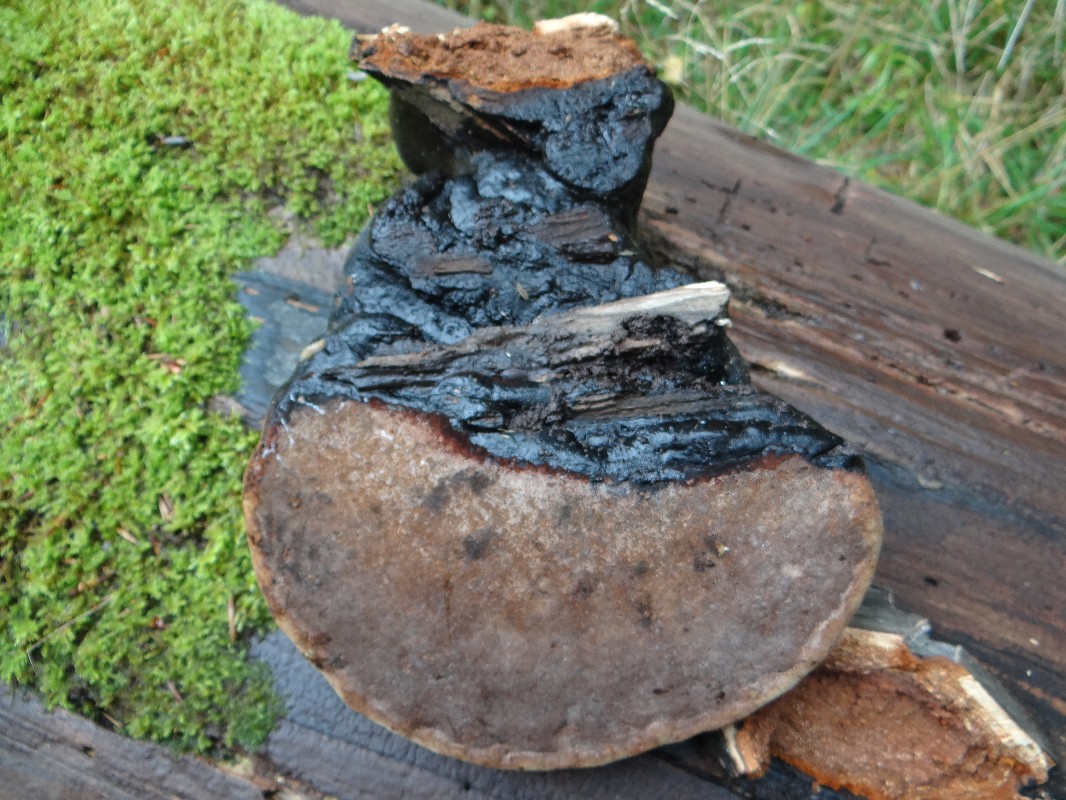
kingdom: Fungi
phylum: Basidiomycota
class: Agaricomycetes
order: Polyporales
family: Polyporaceae
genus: Fomes
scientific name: Fomes fomentarius
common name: tøndersvamp
